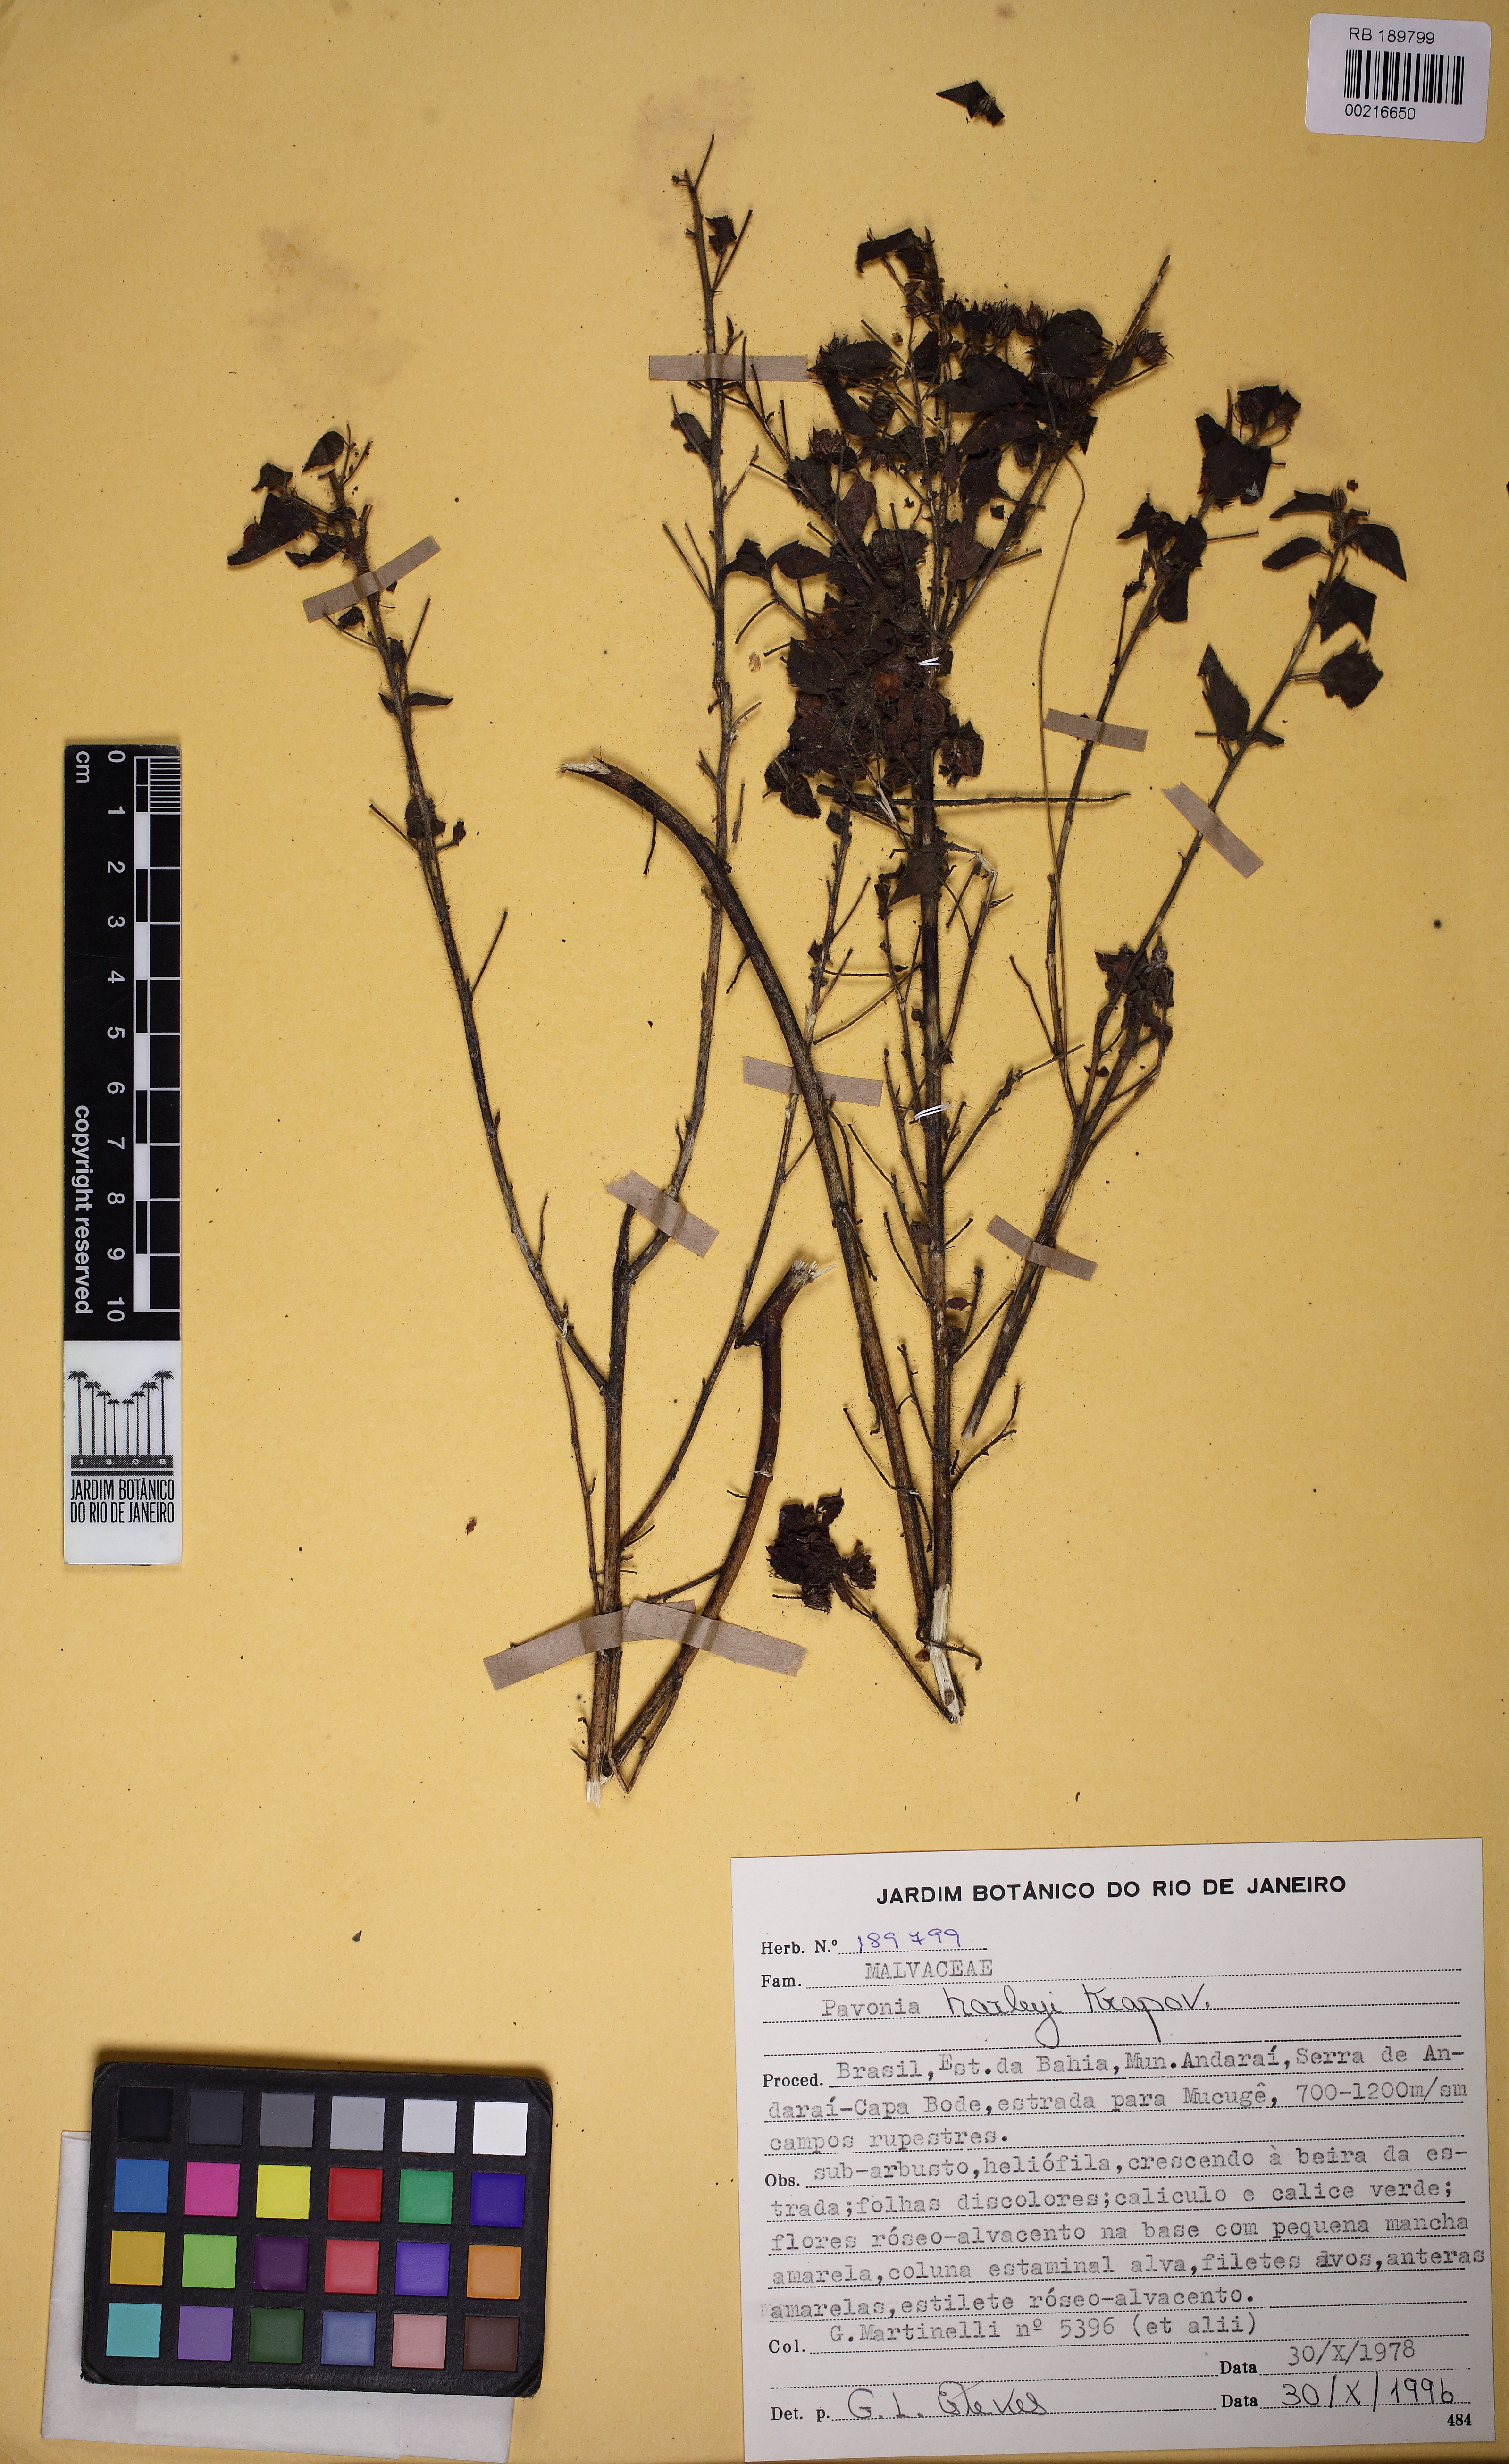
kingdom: Plantae
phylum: Tracheophyta
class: Magnoliopsida
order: Malvales
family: Malvaceae
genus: Pavonia
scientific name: Pavonia harleyi
